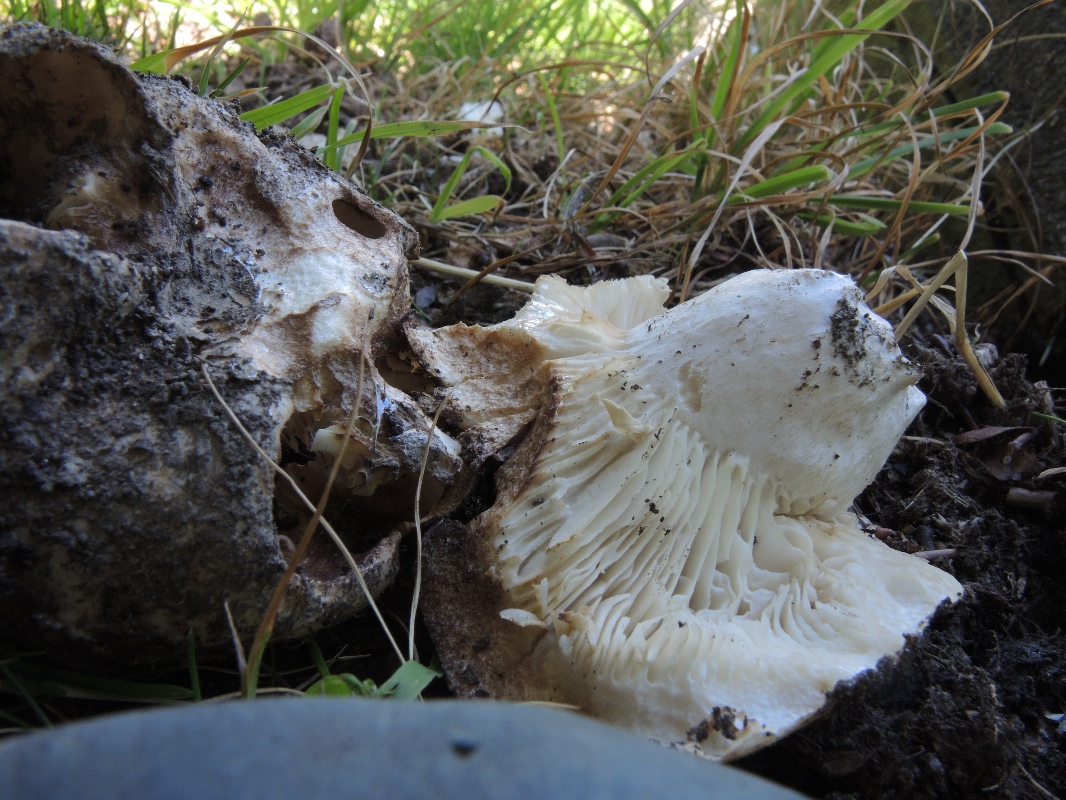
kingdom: Fungi
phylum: Basidiomycota
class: Agaricomycetes
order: Russulales
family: Russulaceae
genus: Russula
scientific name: Russula delica
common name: almindelig tragt-skørhat
